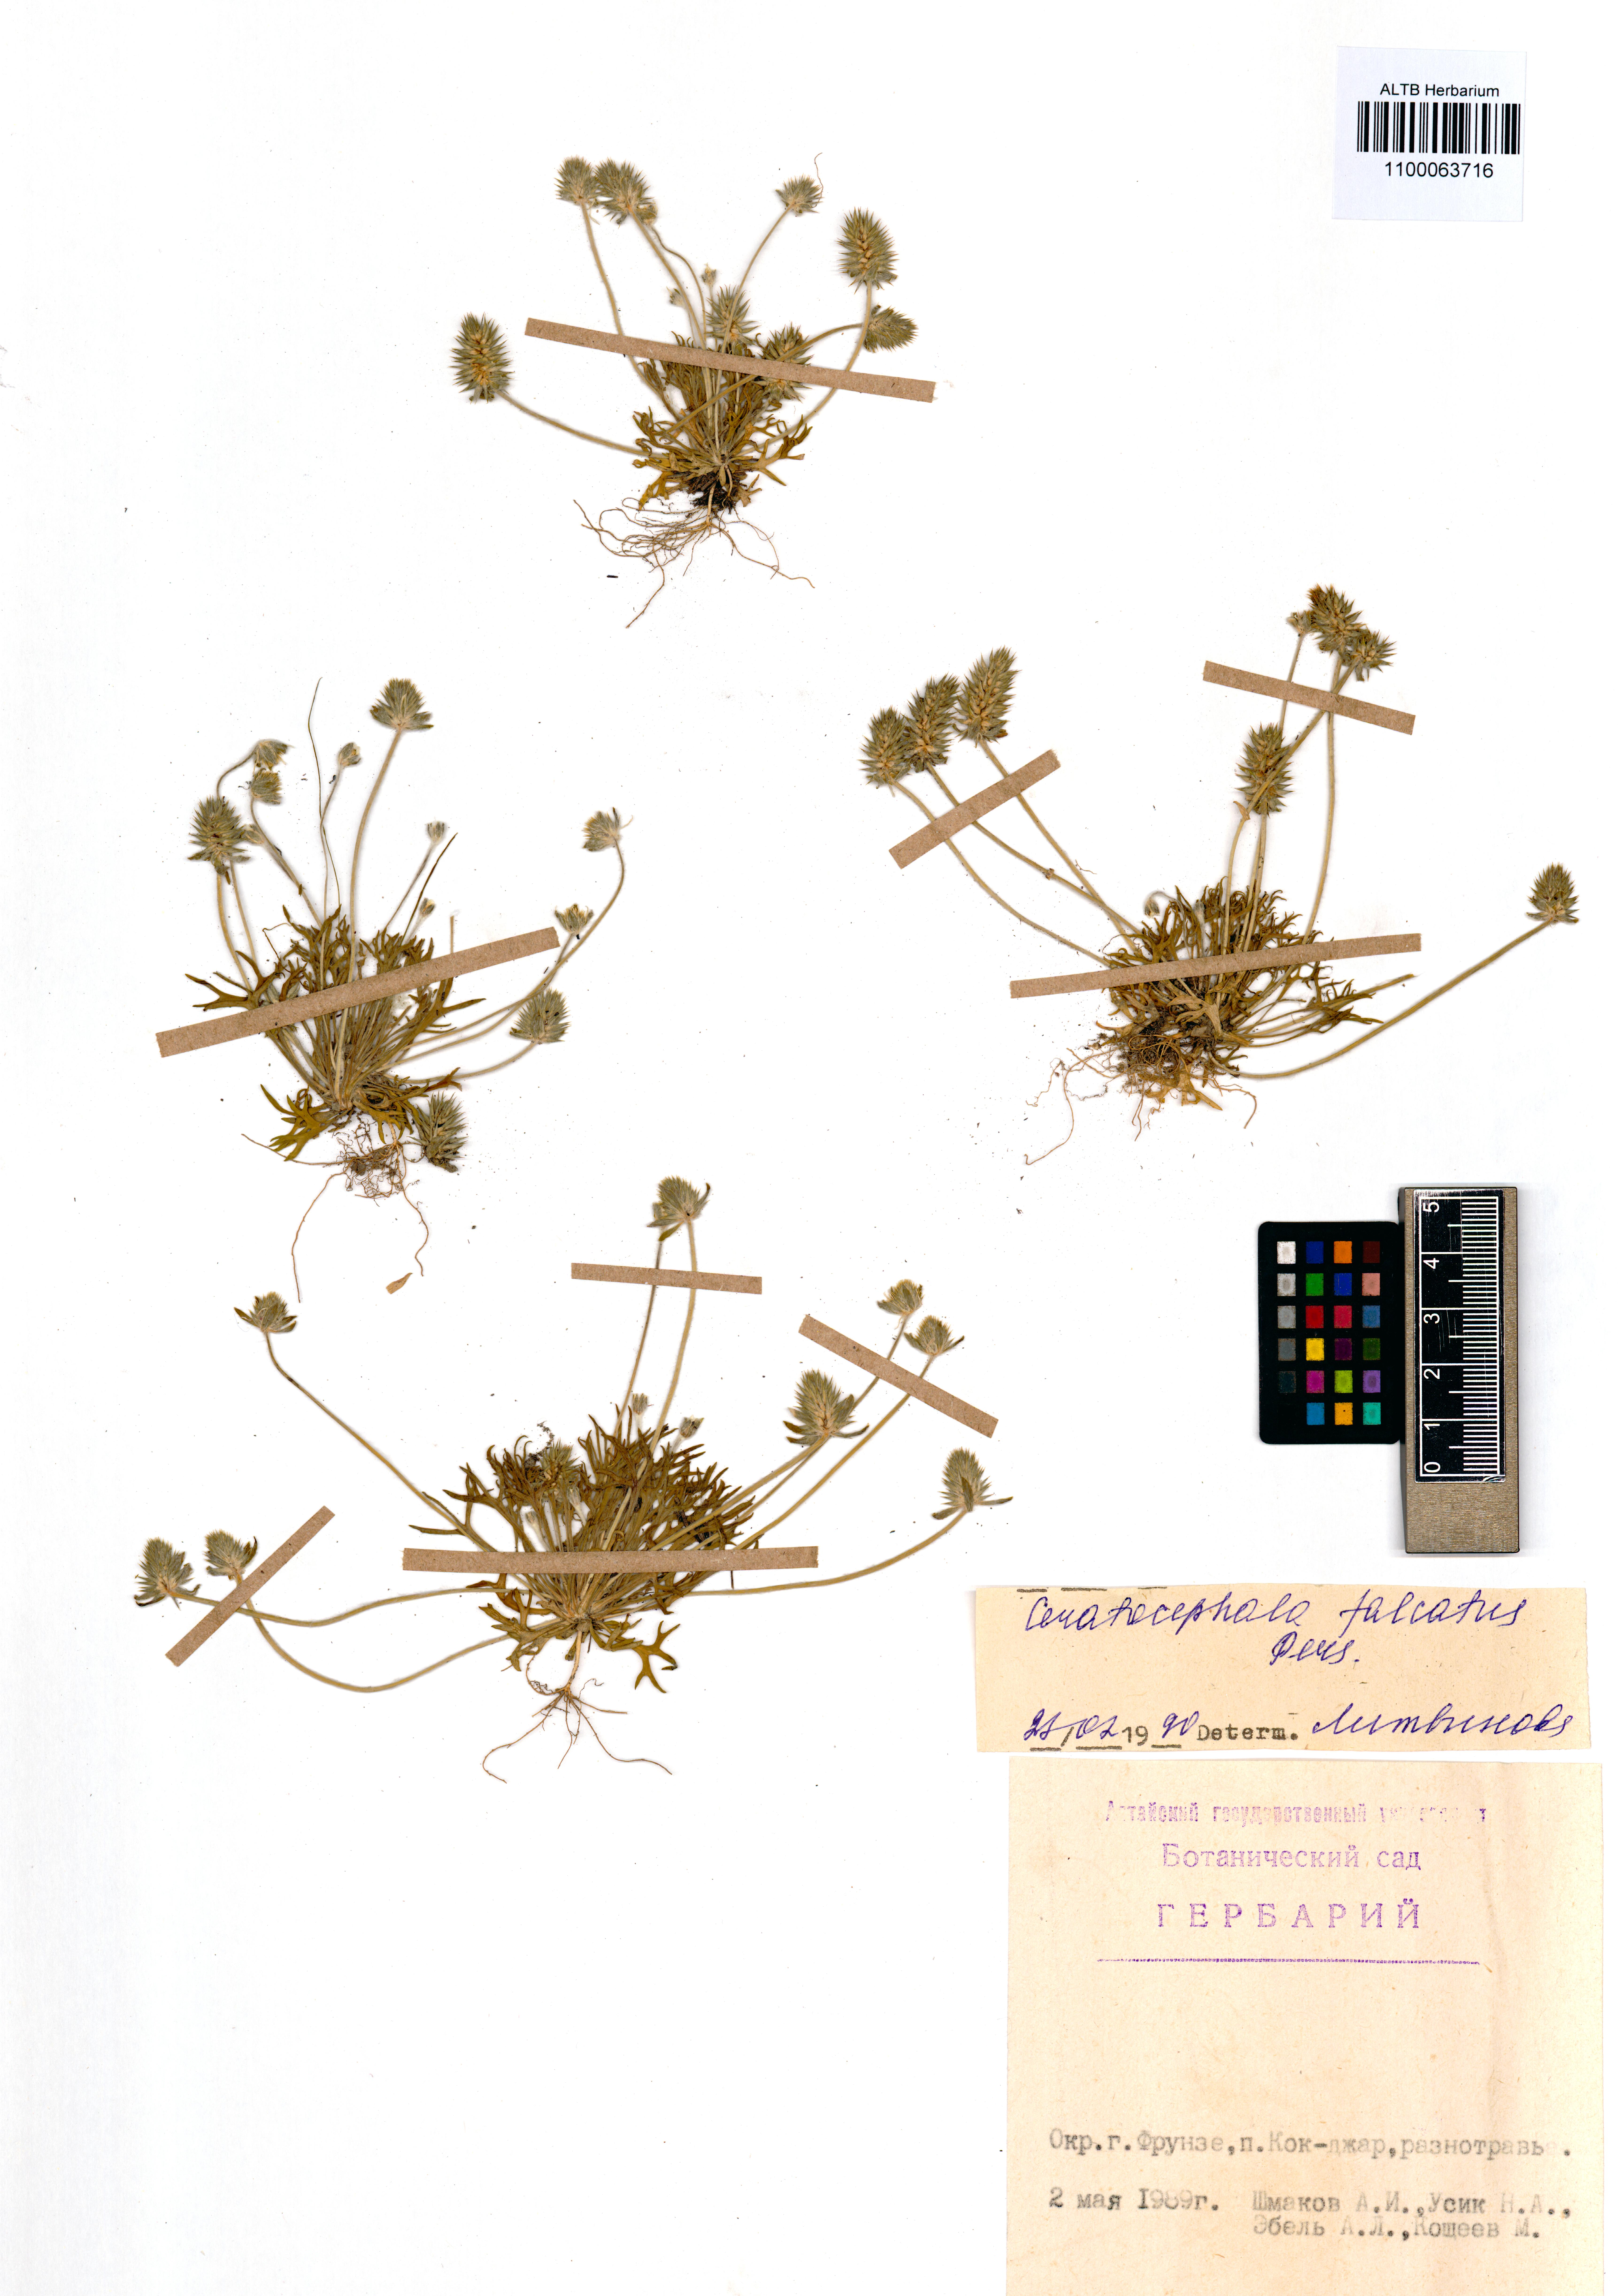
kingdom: Plantae
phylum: Tracheophyta
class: Magnoliopsida
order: Ranunculales
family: Ranunculaceae
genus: Ceratocephala
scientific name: Ceratocephala falcata
